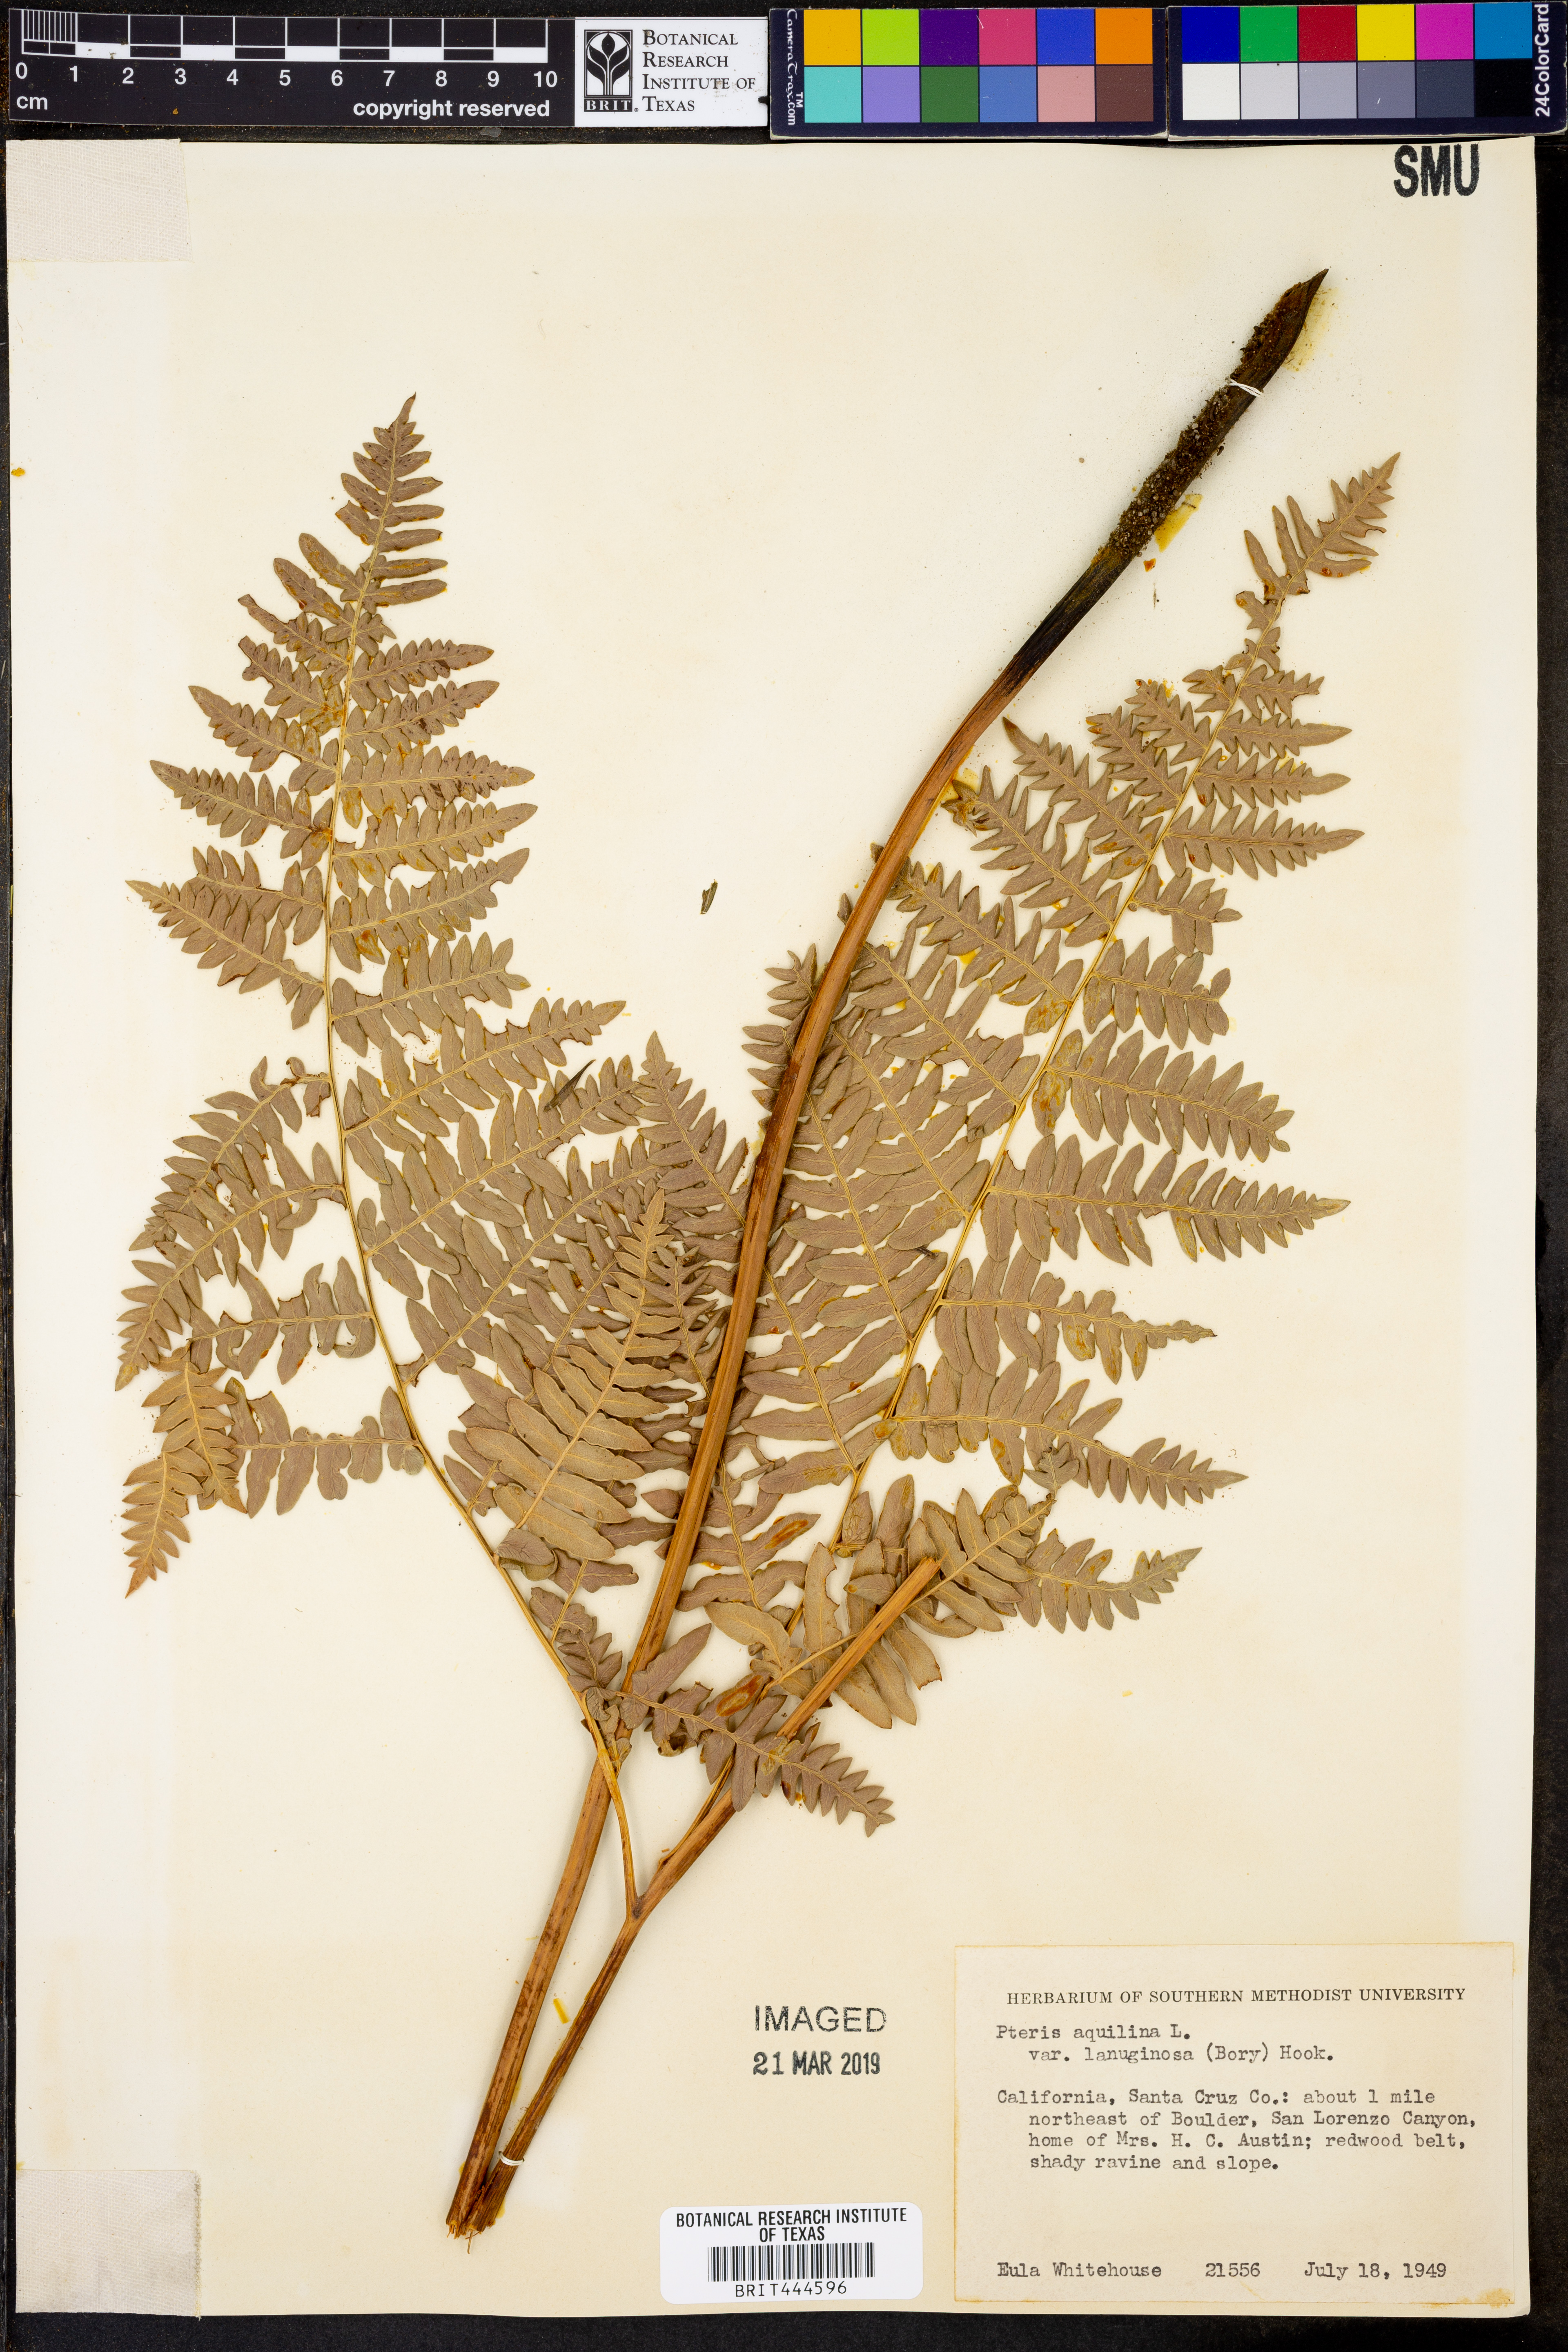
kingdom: Plantae
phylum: Tracheophyta
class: Polypodiopsida
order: Polypodiales
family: Dennstaedtiaceae
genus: Pteridium
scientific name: Pteridium aquilinum
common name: Bracken
